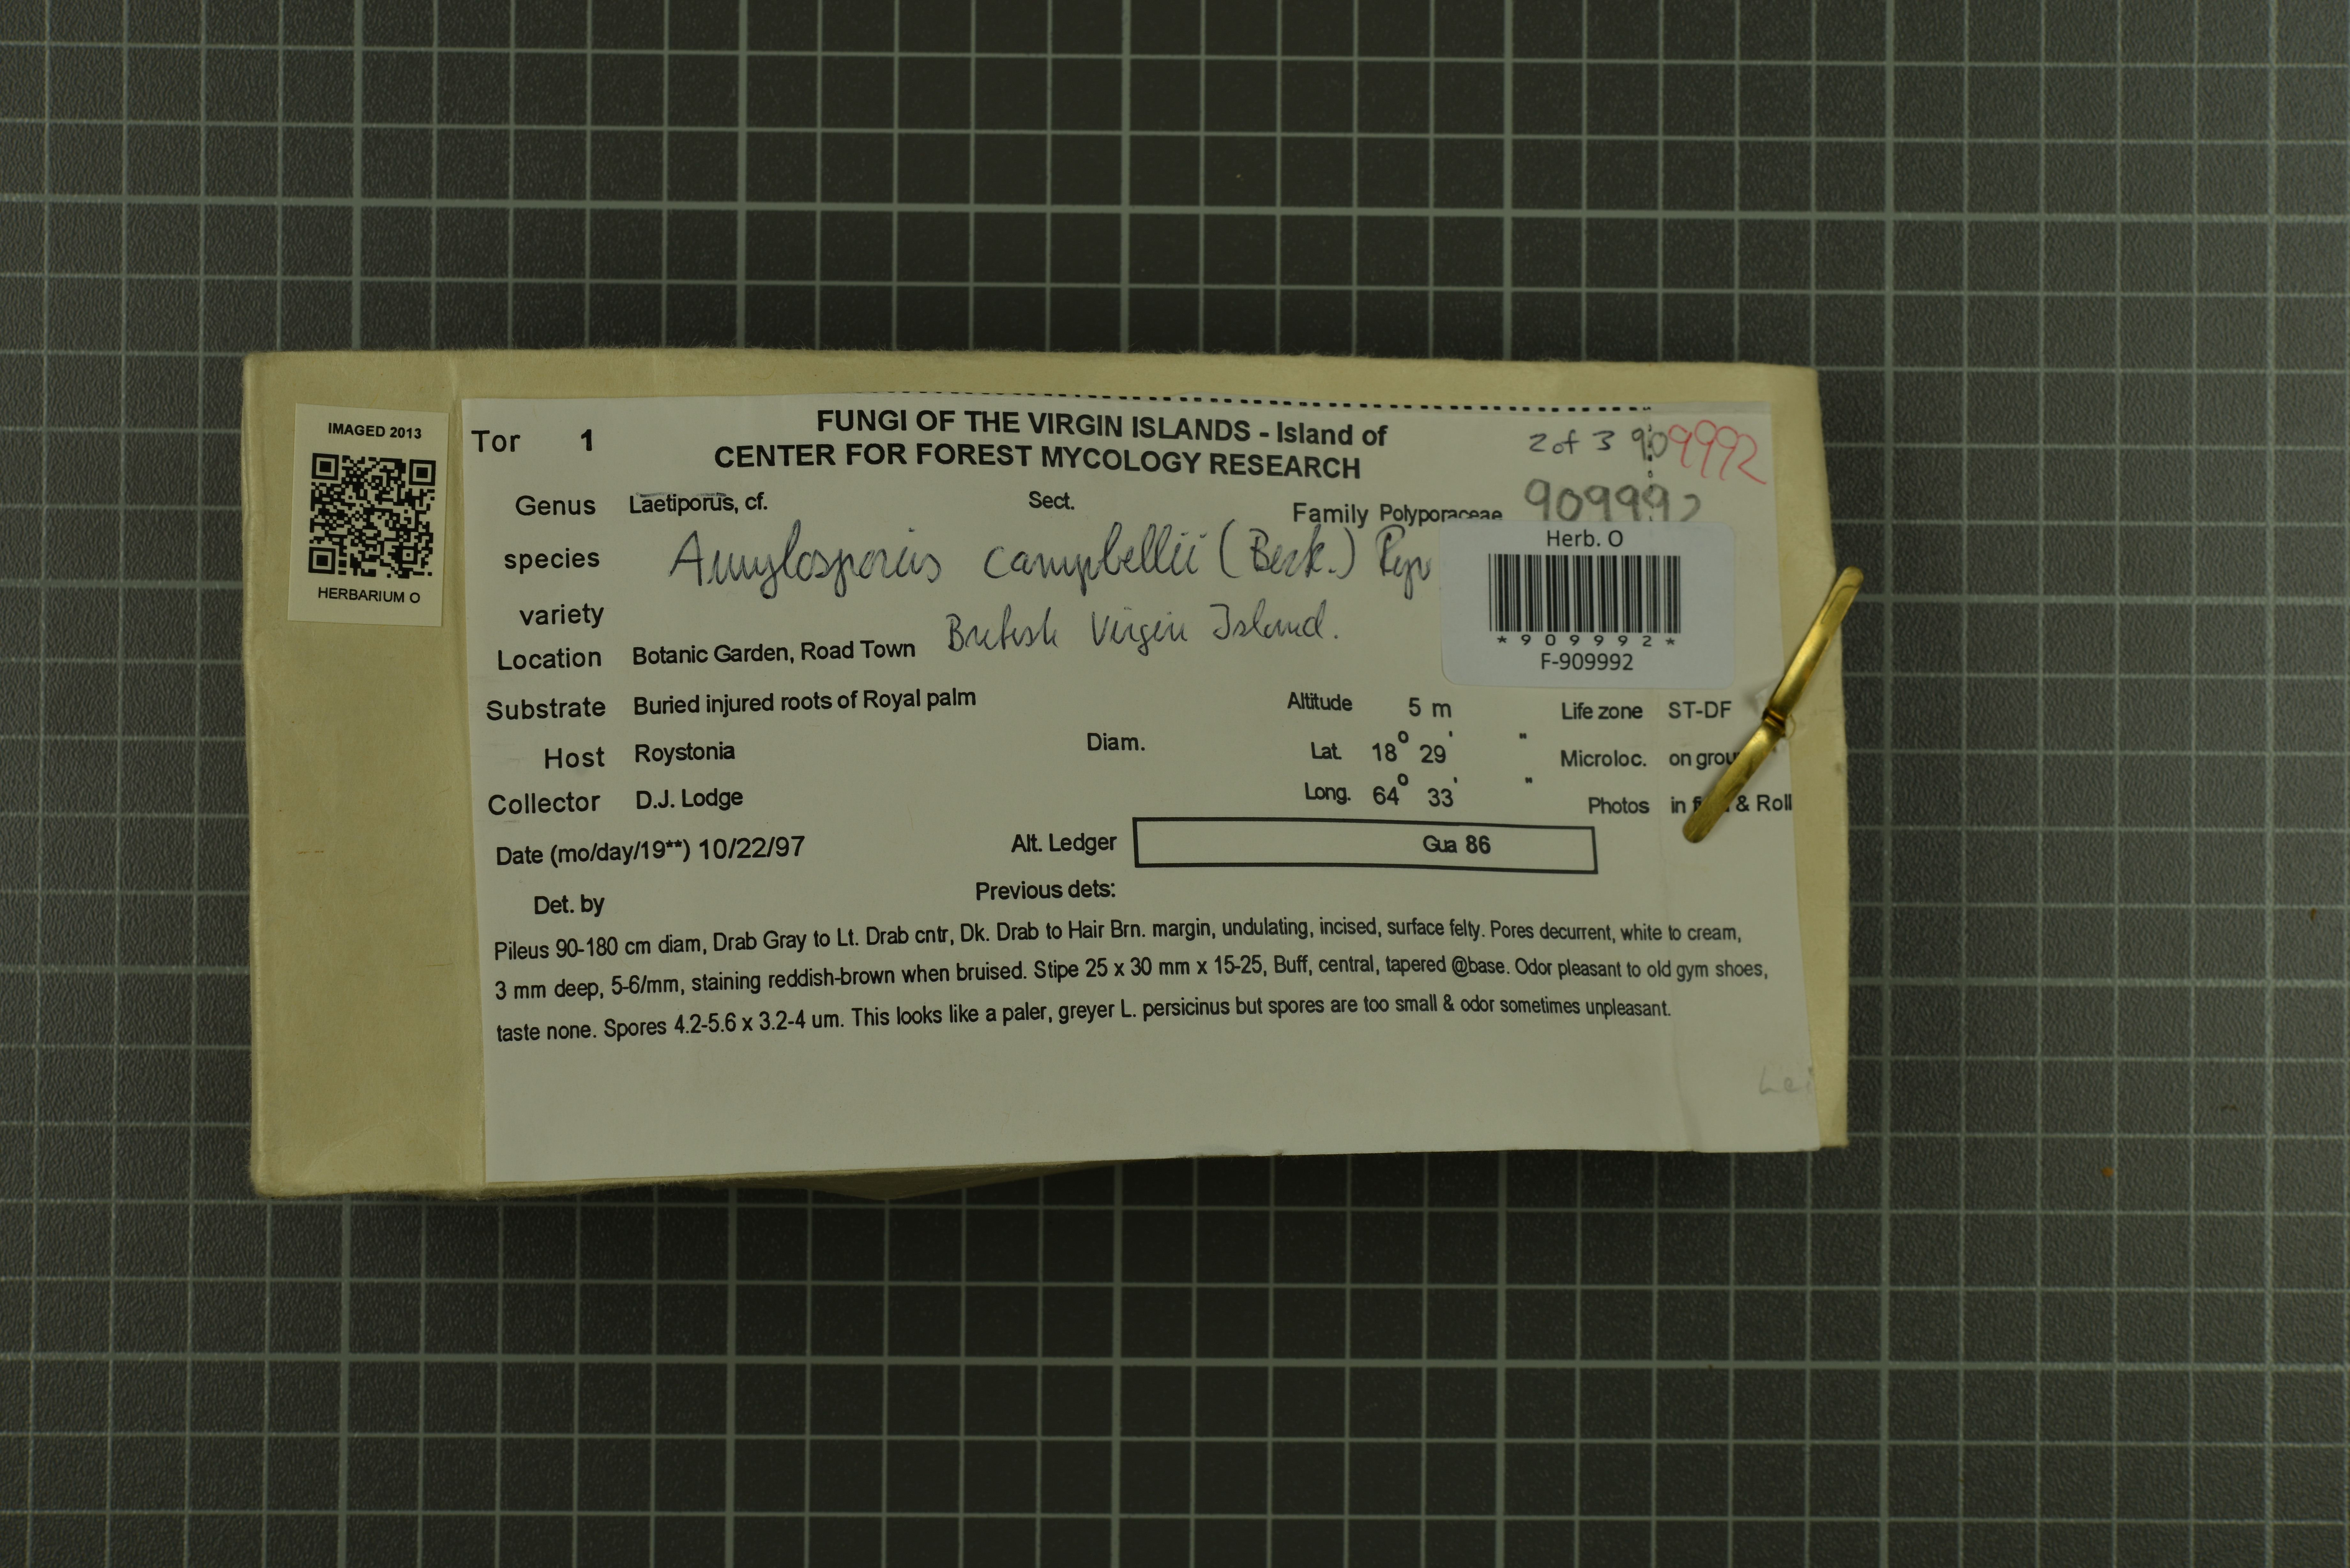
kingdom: Fungi
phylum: Basidiomycota
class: Agaricomycetes
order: Russulales
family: Bondarzewiaceae
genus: Amylosporus
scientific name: Amylosporus campbellii
